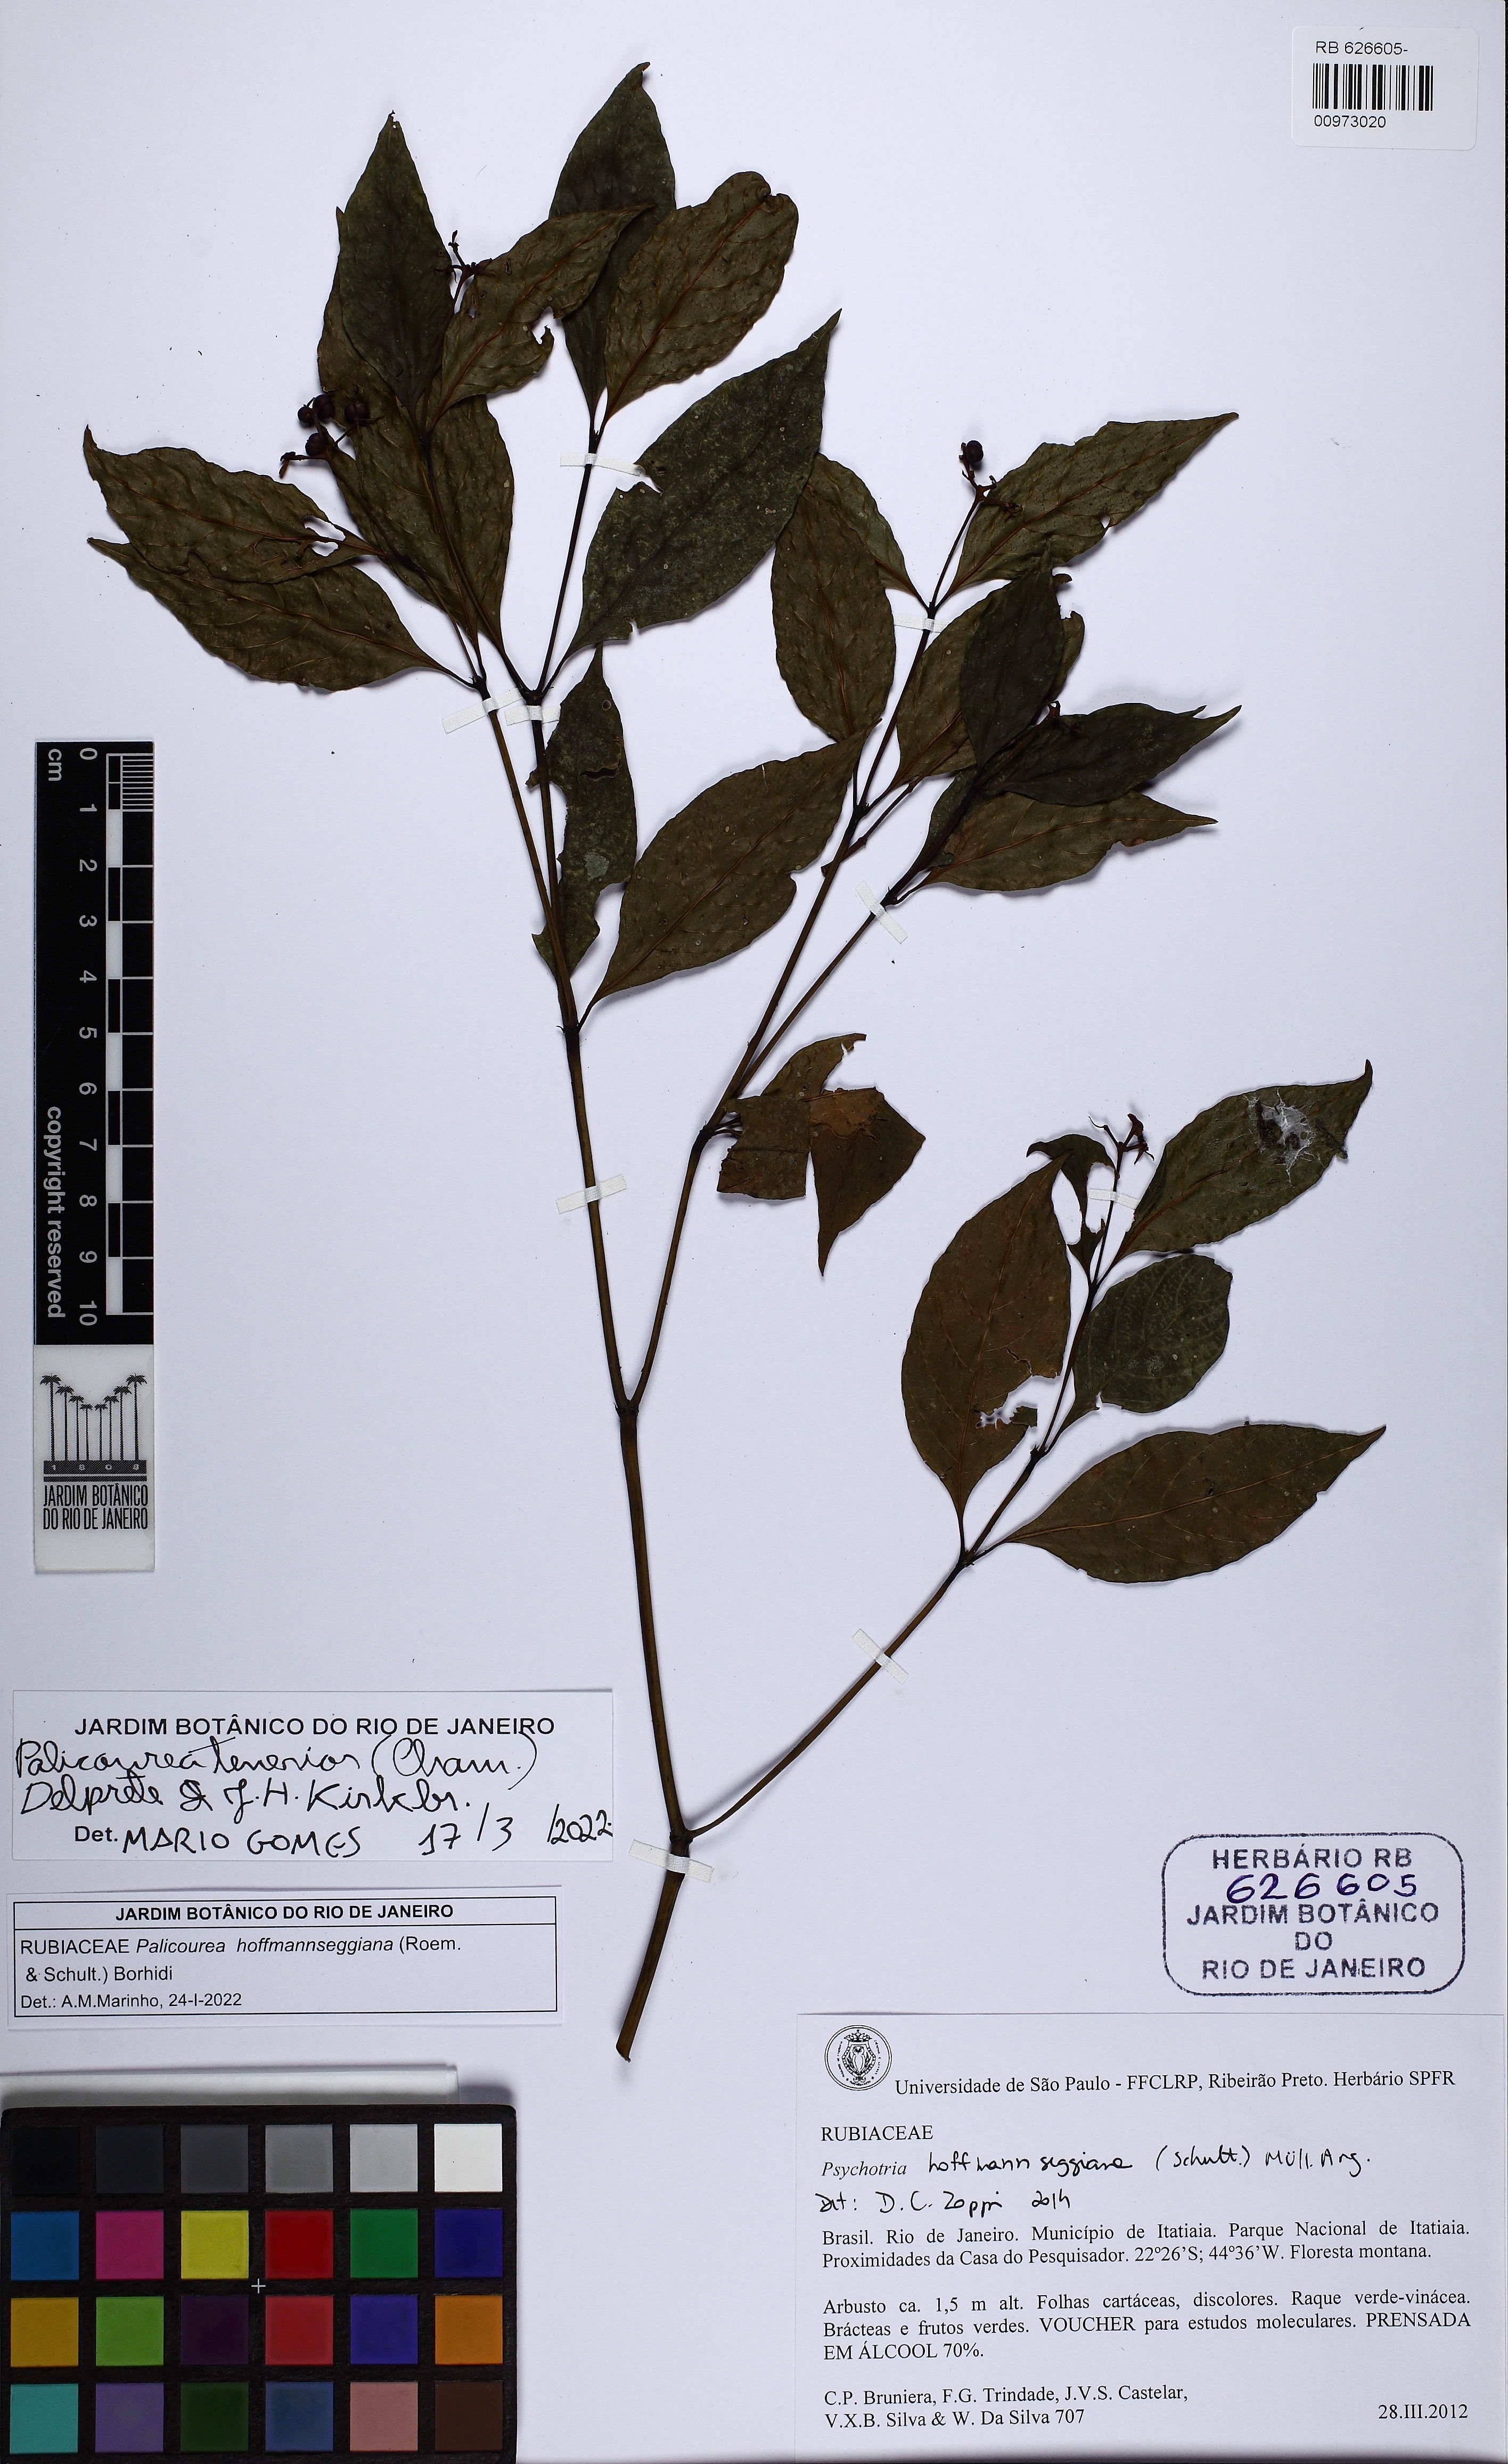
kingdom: Plantae
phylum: Tracheophyta
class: Magnoliopsida
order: Gentianales
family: Rubiaceae
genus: Palicourea
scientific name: Palicourea tenerior
